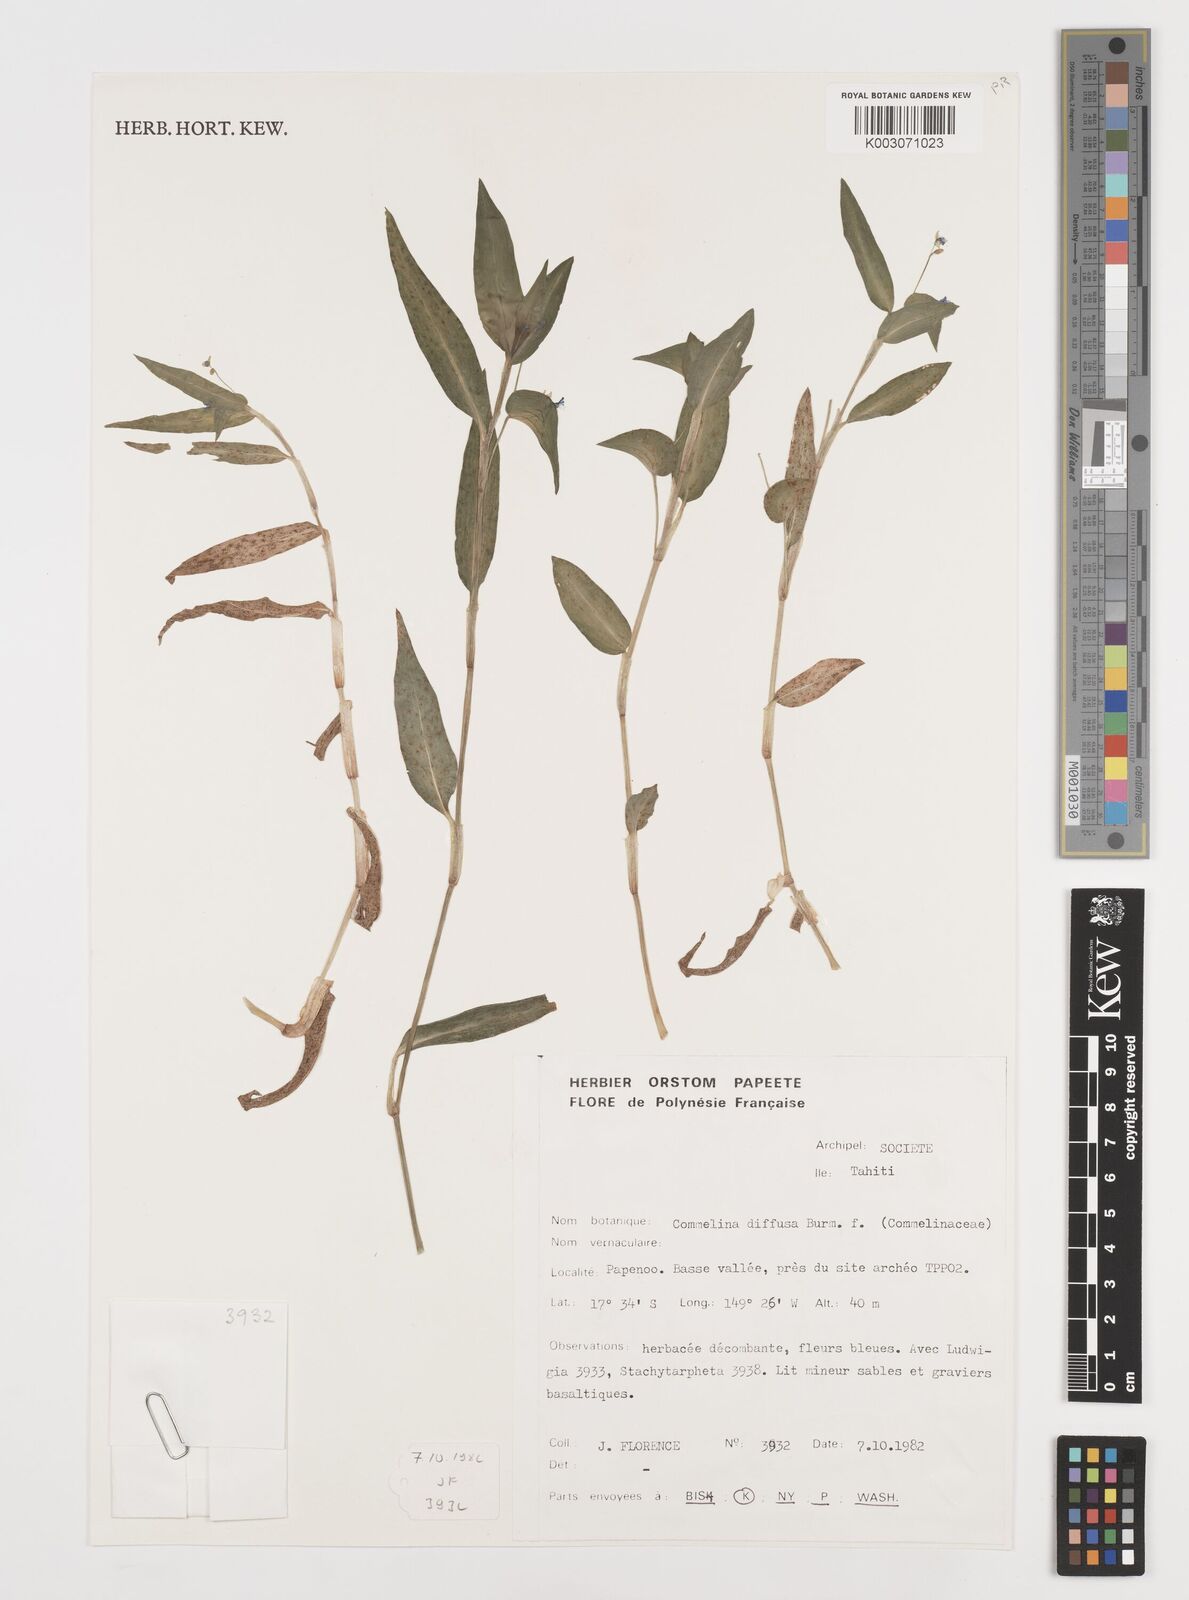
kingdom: Plantae
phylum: Tracheophyta
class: Liliopsida
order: Commelinales
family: Commelinaceae
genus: Commelina
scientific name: Commelina diffusa
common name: Climbing dayflower
